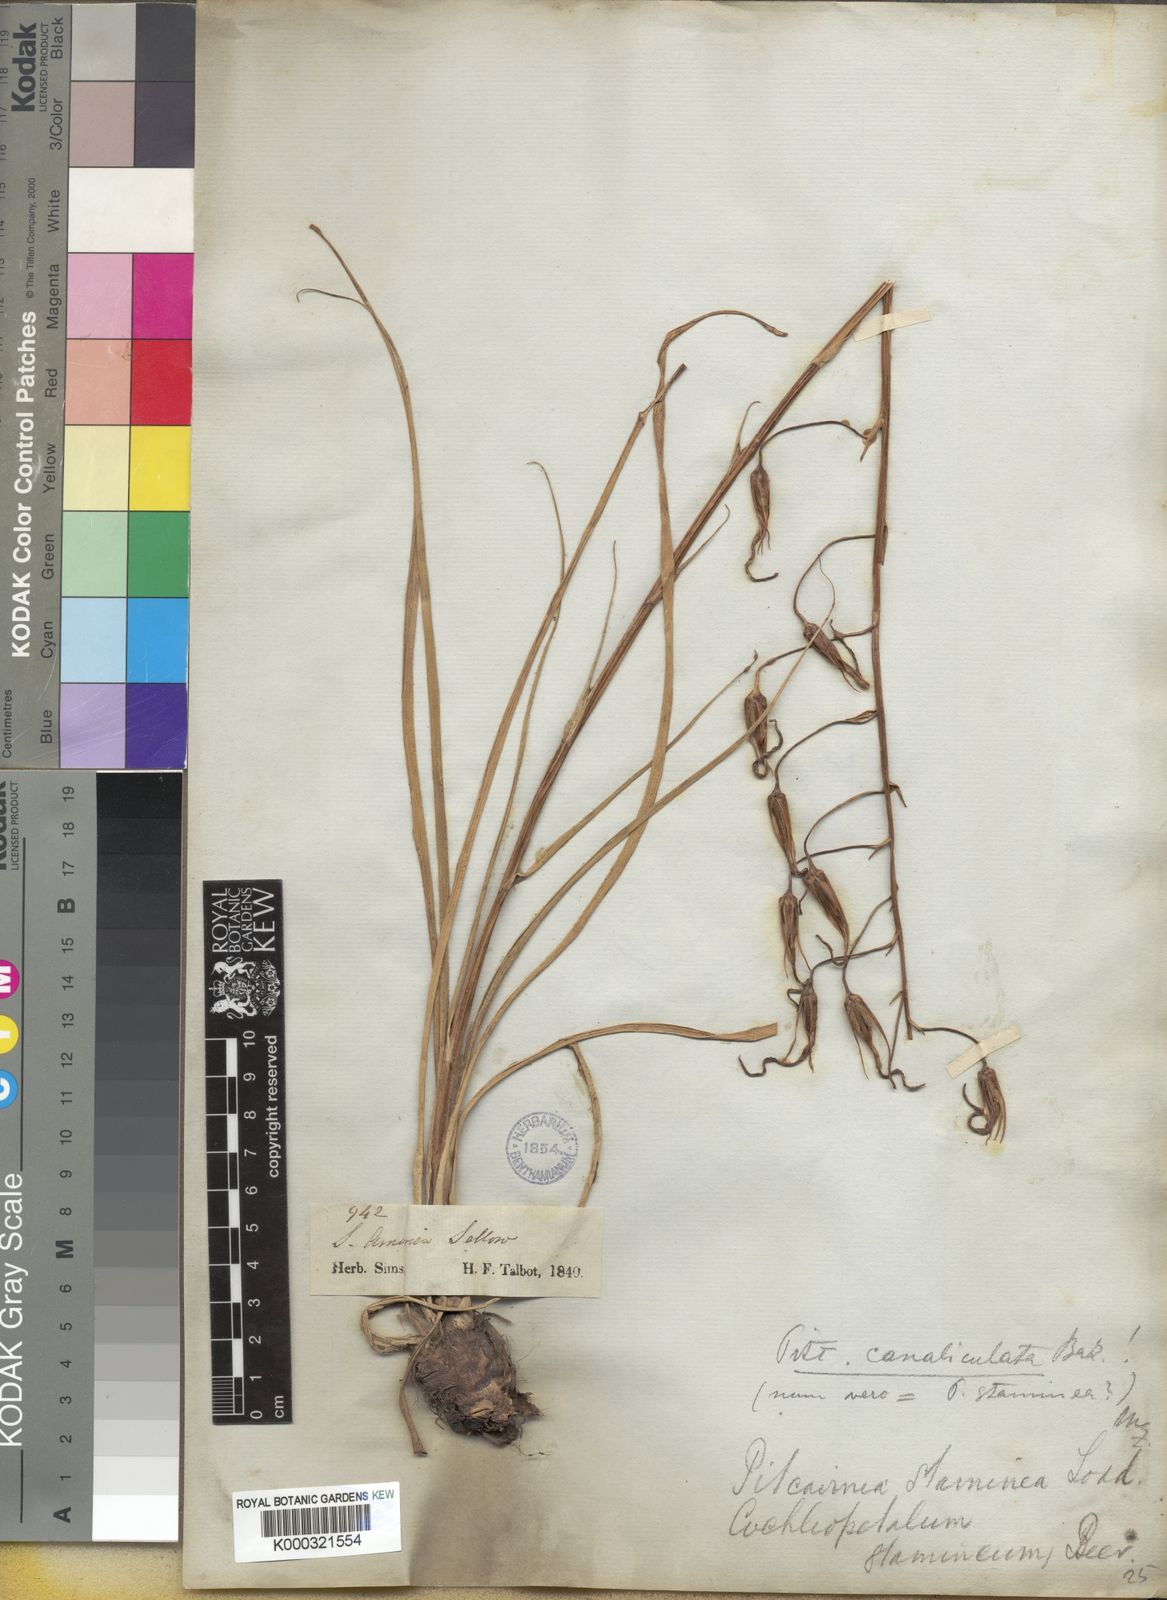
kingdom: Plantae
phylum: Tracheophyta
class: Liliopsida
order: Poales
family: Bromeliaceae
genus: Pitcairnia
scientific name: Pitcairnia staminea
